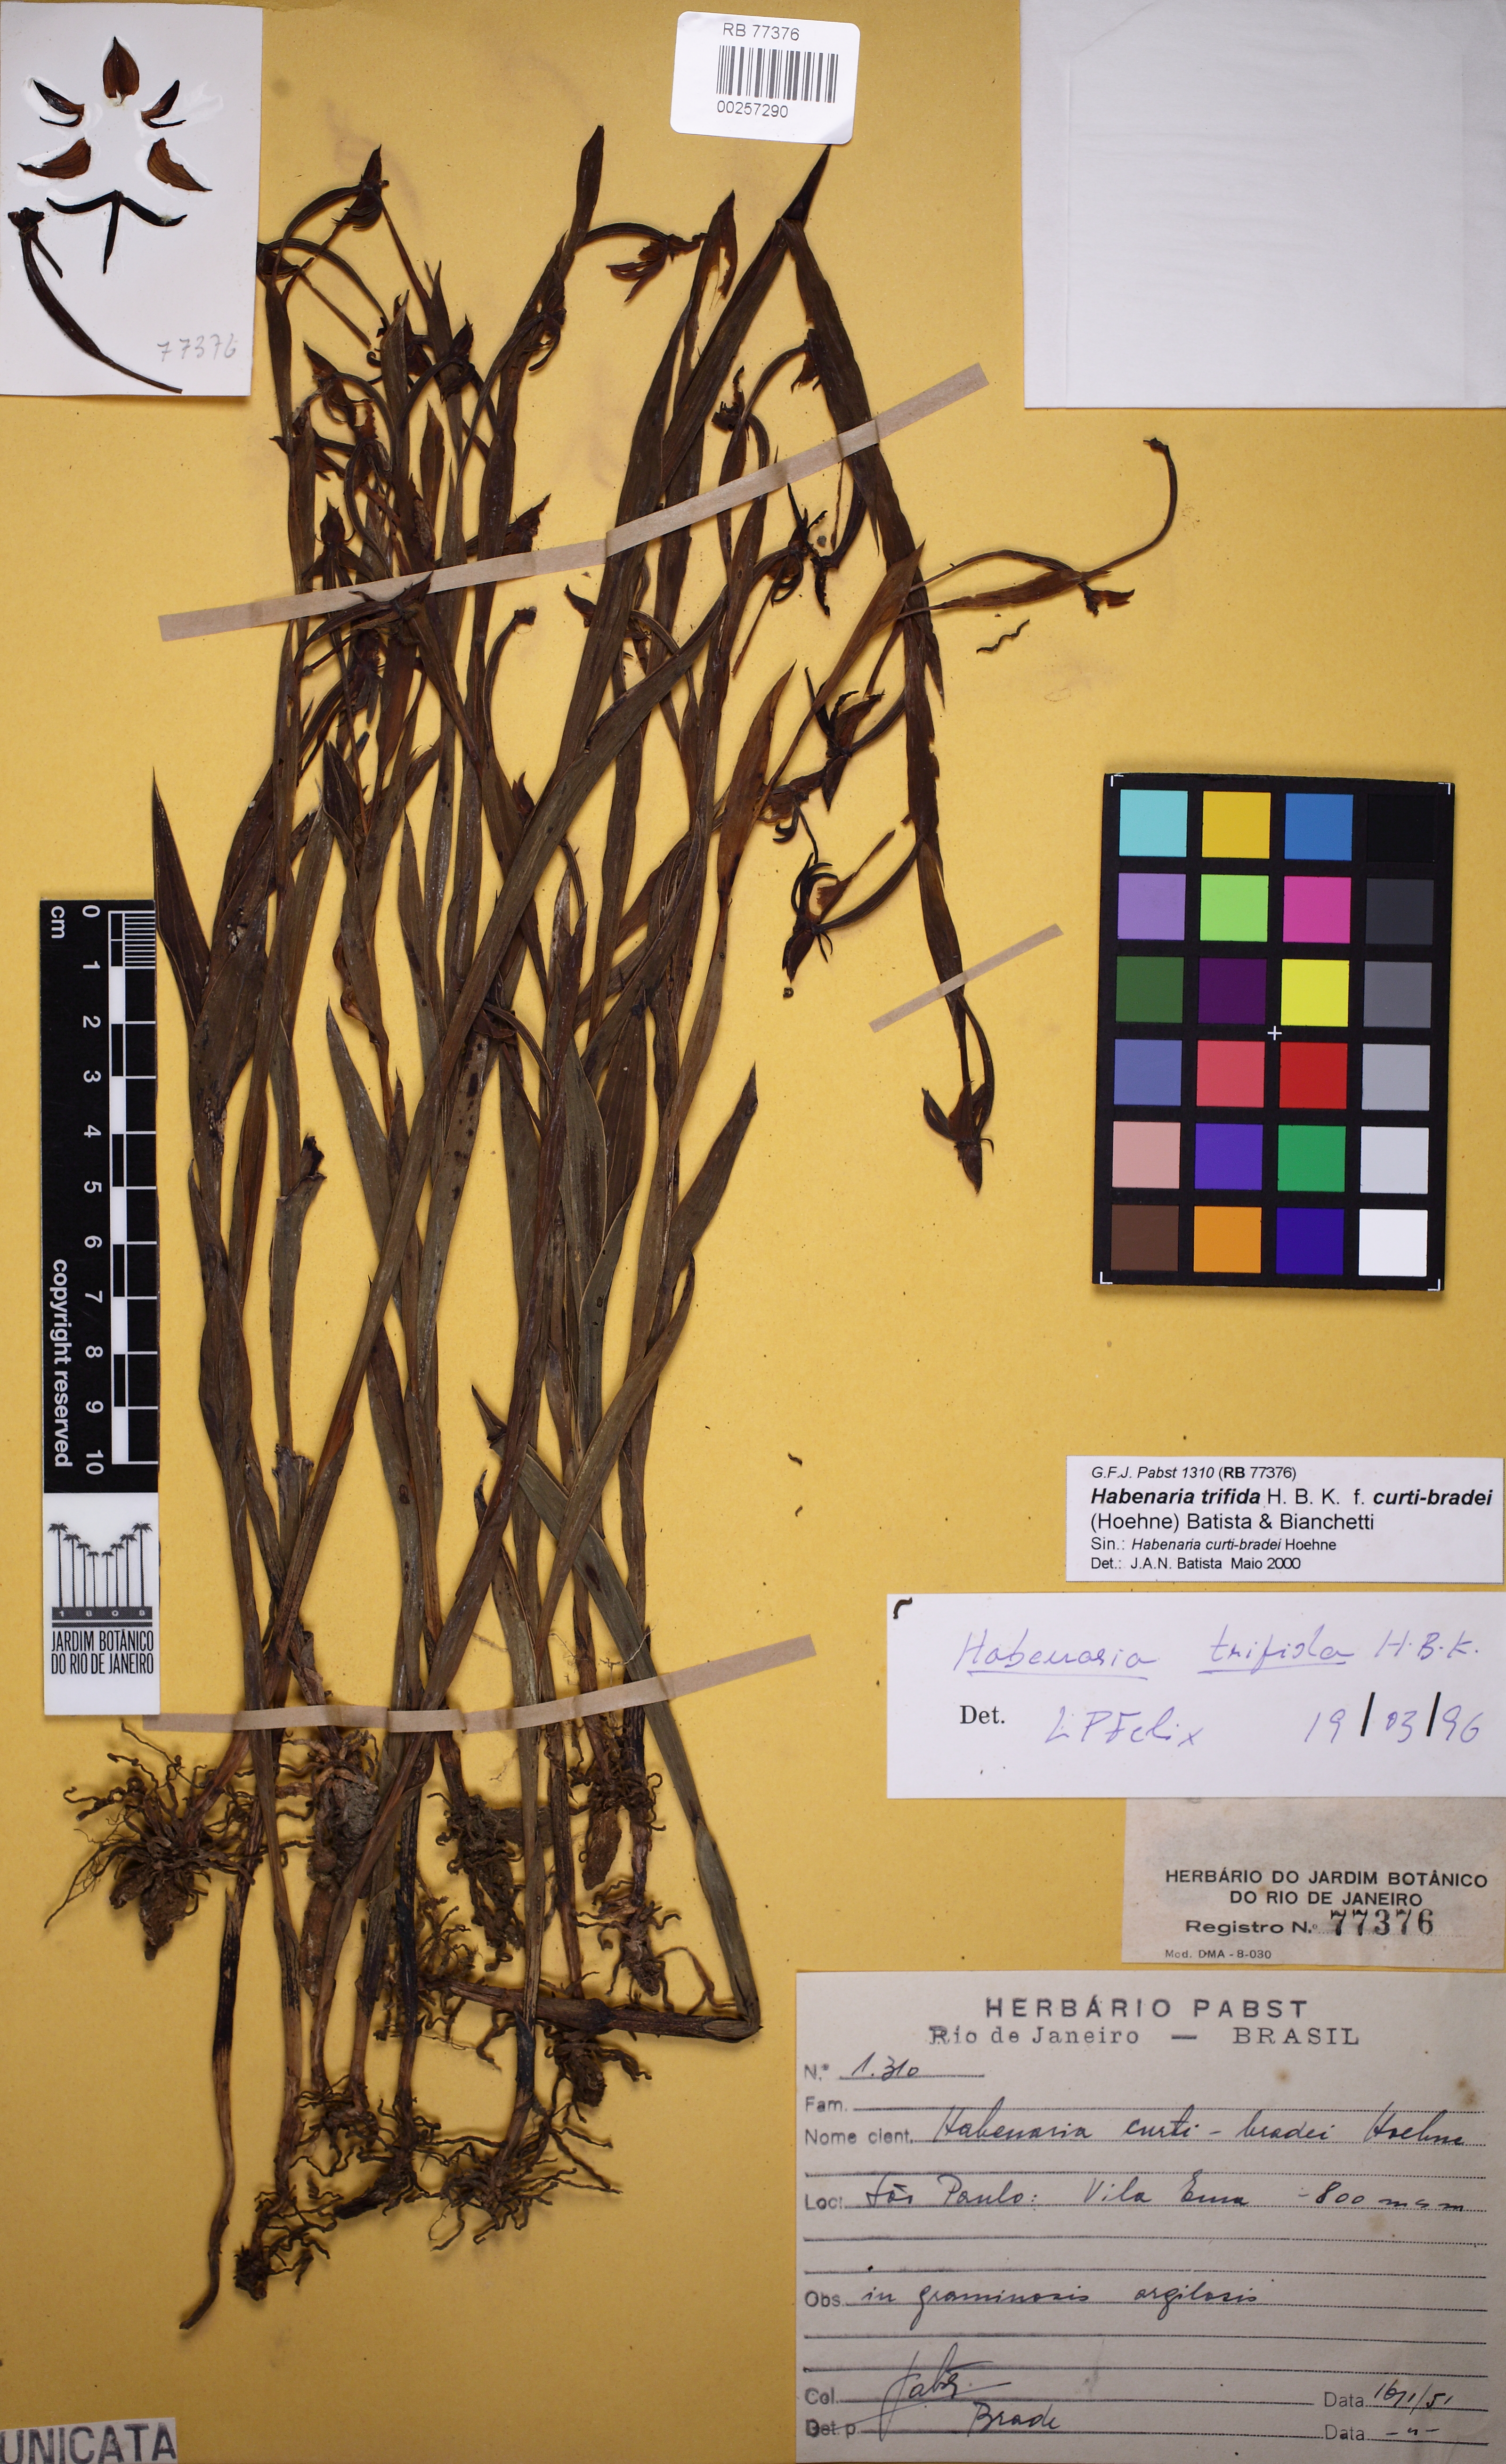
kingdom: Plantae
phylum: Tracheophyta
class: Liliopsida
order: Asparagales
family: Orchidaceae
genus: Habenaria
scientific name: Habenaria trifida
